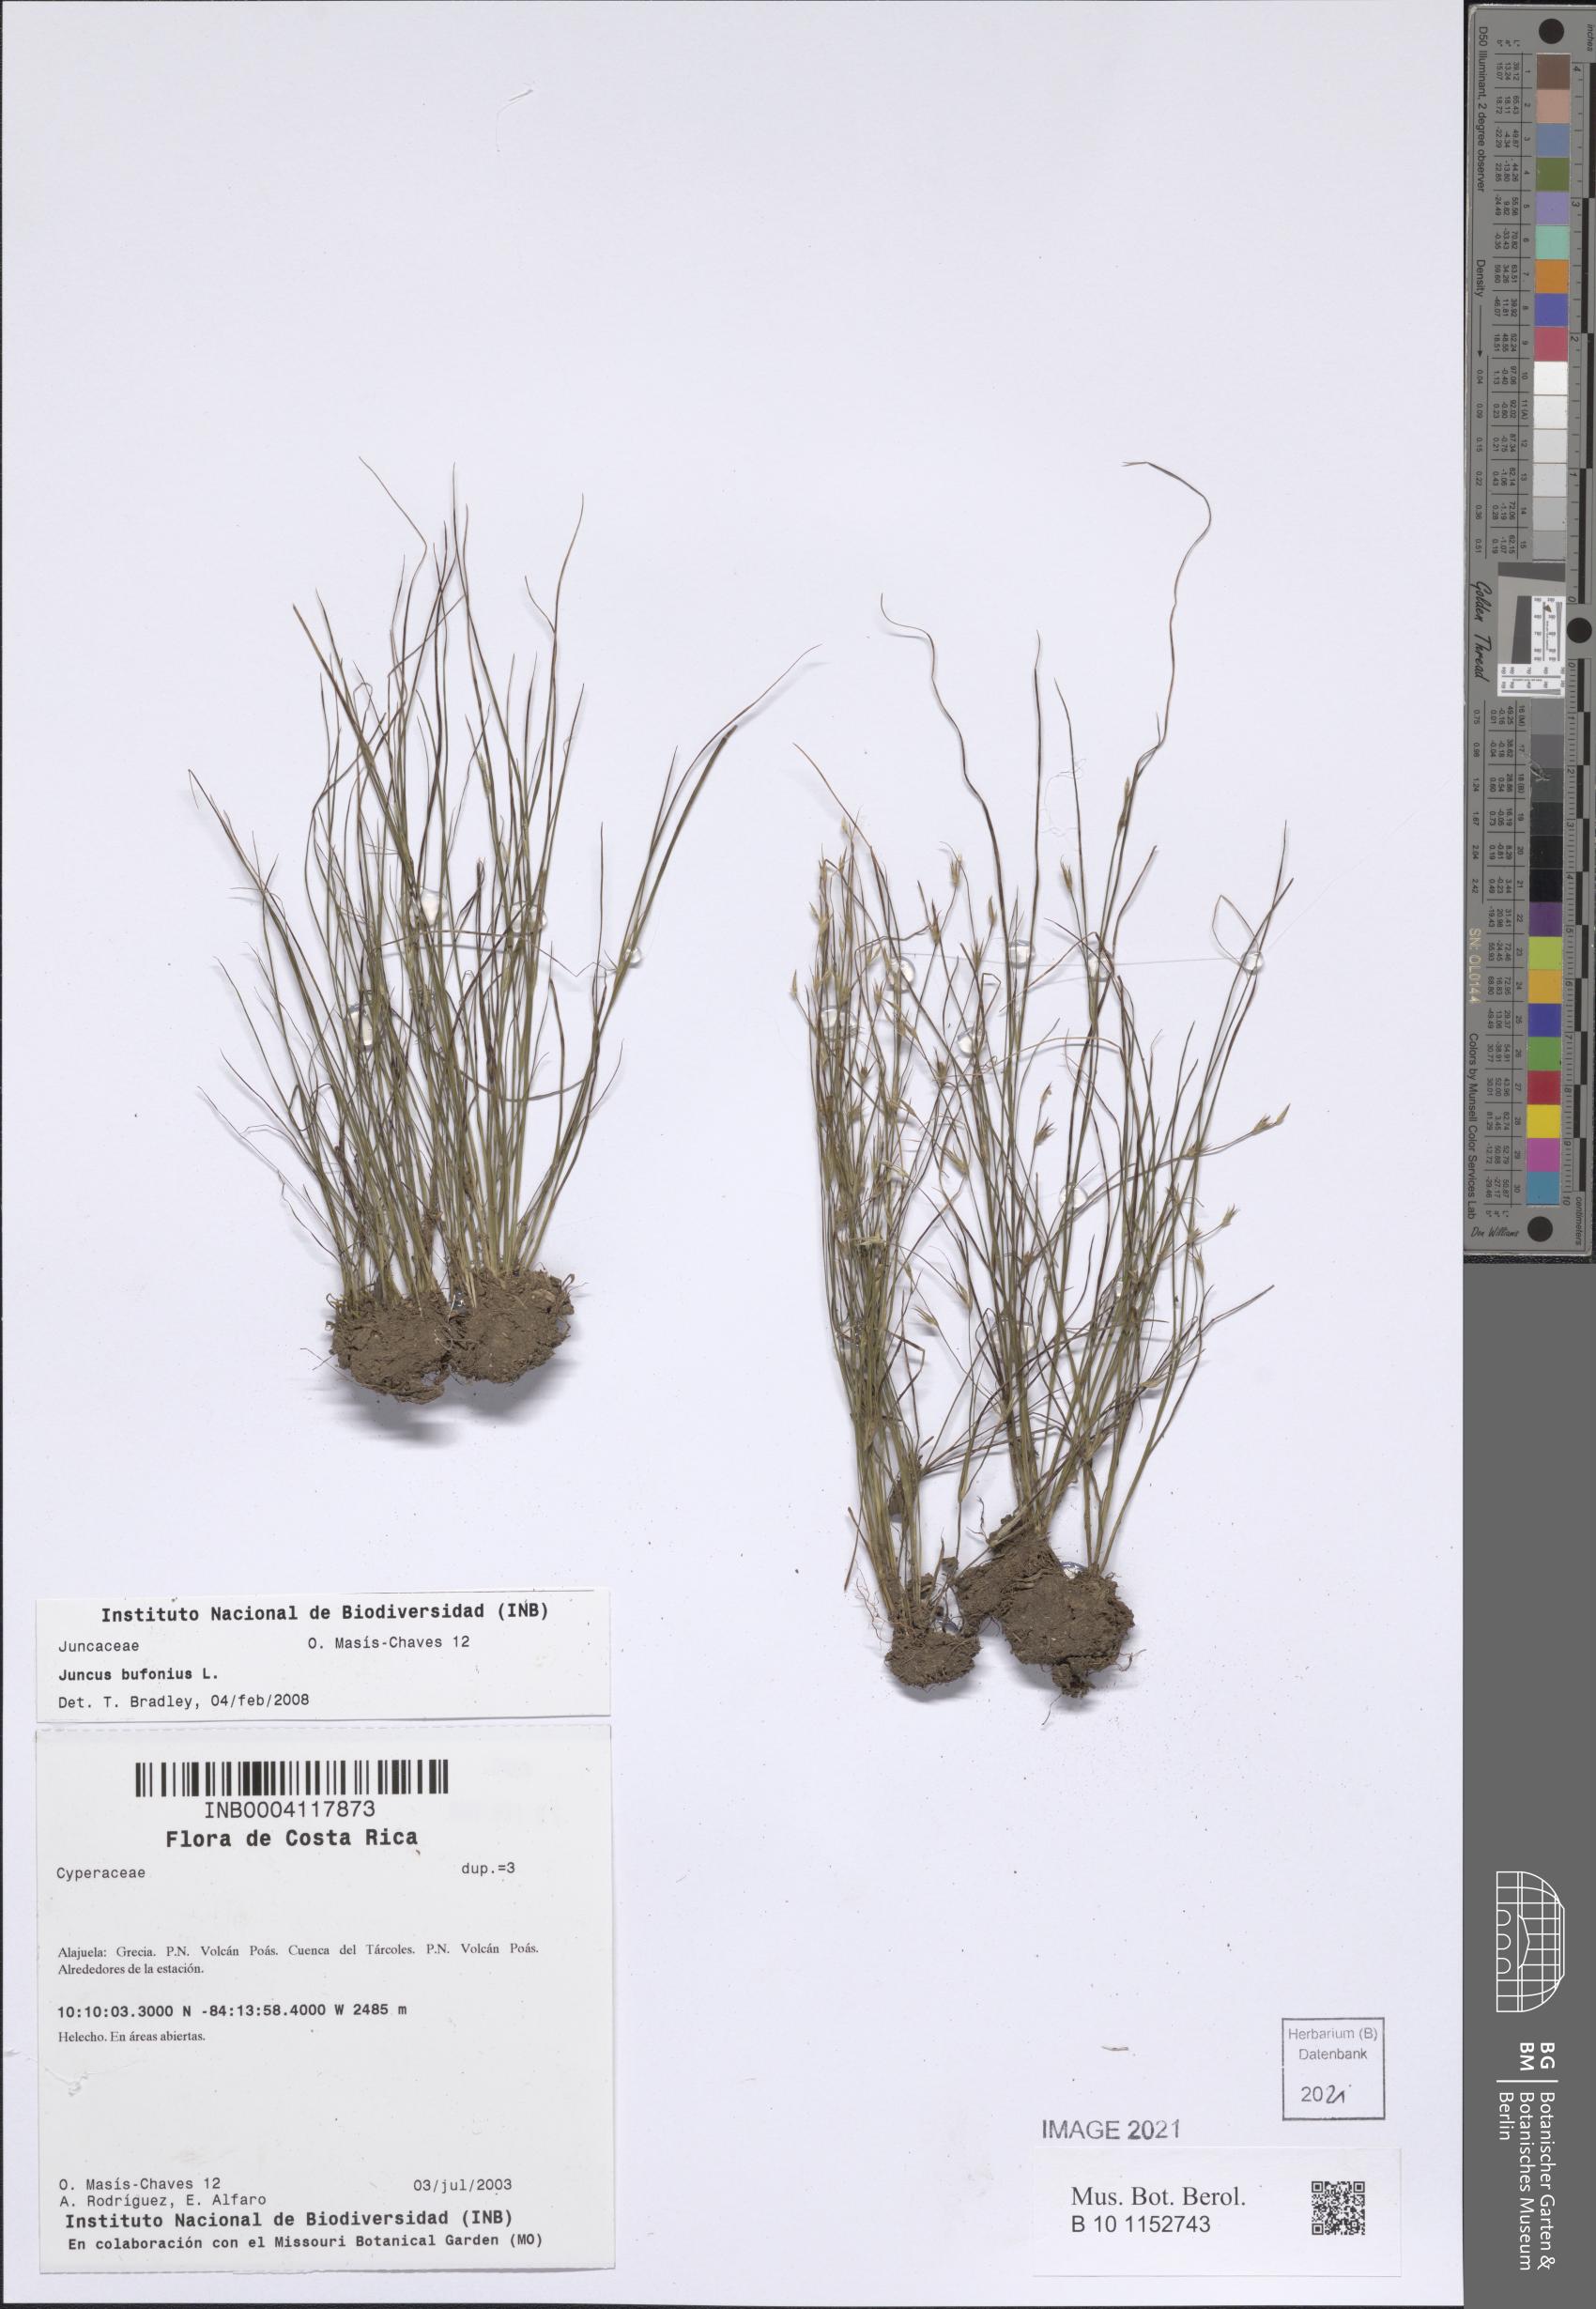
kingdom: Plantae
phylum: Tracheophyta
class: Liliopsida
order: Poales
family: Juncaceae
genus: Juncus
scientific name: Juncus bufonius
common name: Toad rush
